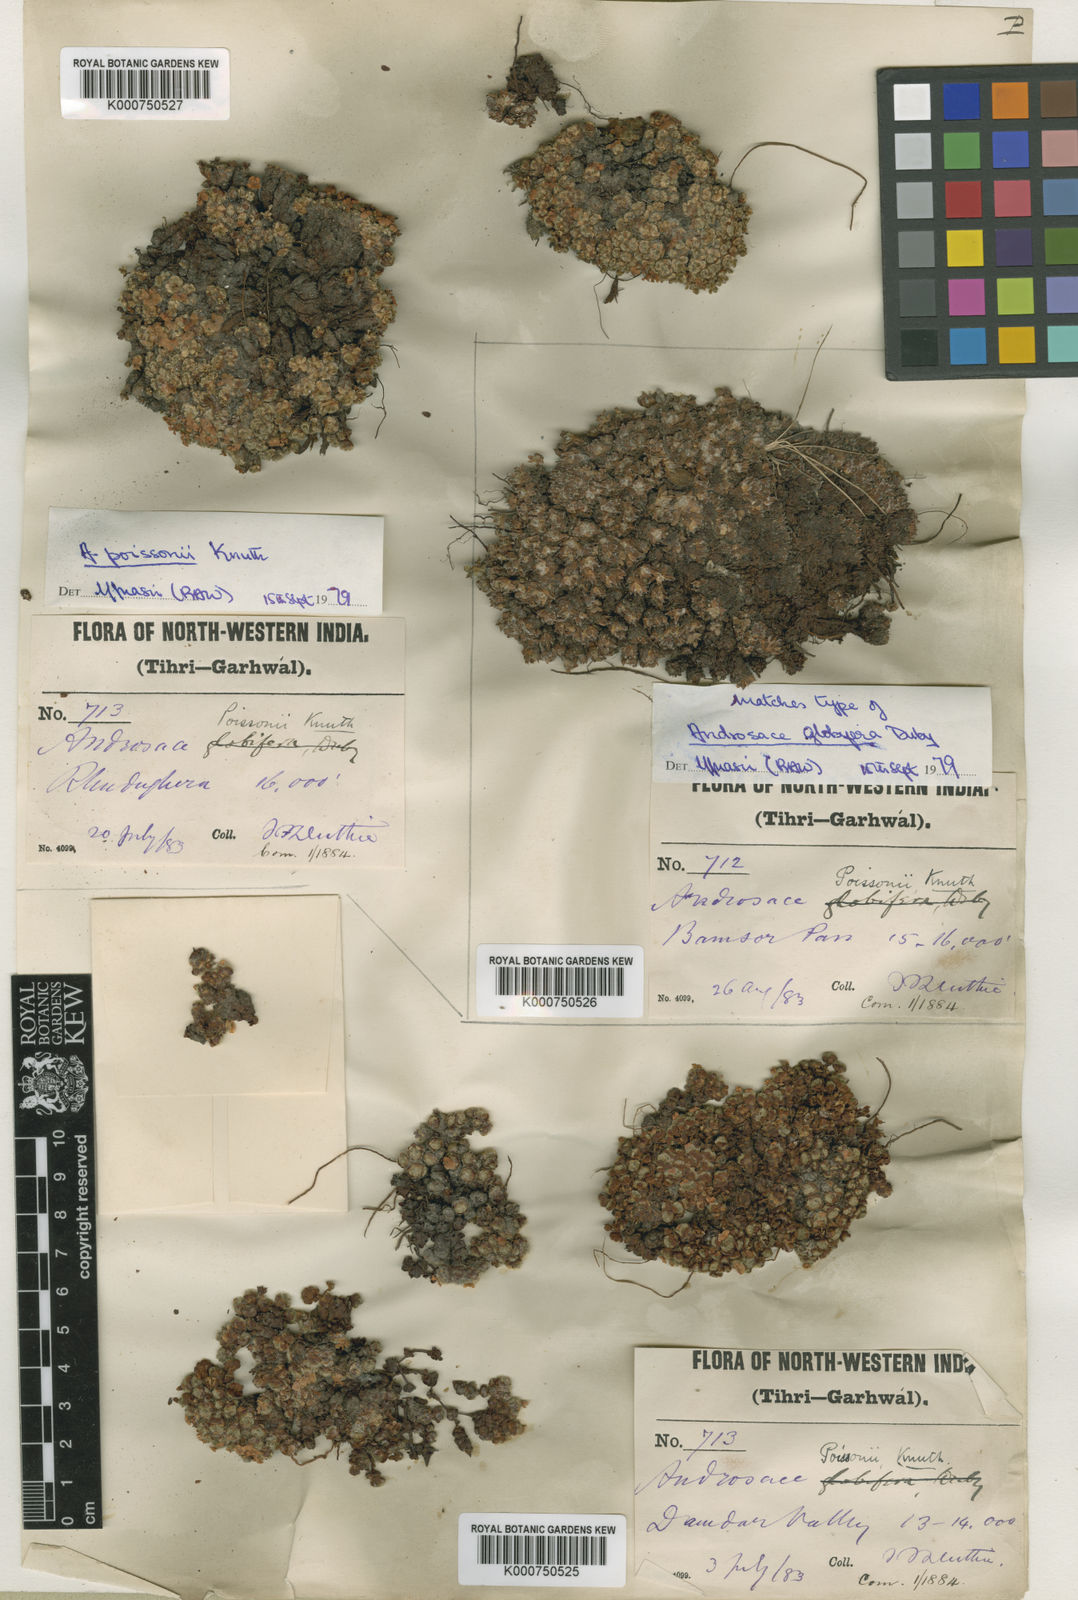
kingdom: Plantae
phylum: Tracheophyta
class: Magnoliopsida
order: Ericales
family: Primulaceae
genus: Androsace
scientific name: Androsace delavayi
